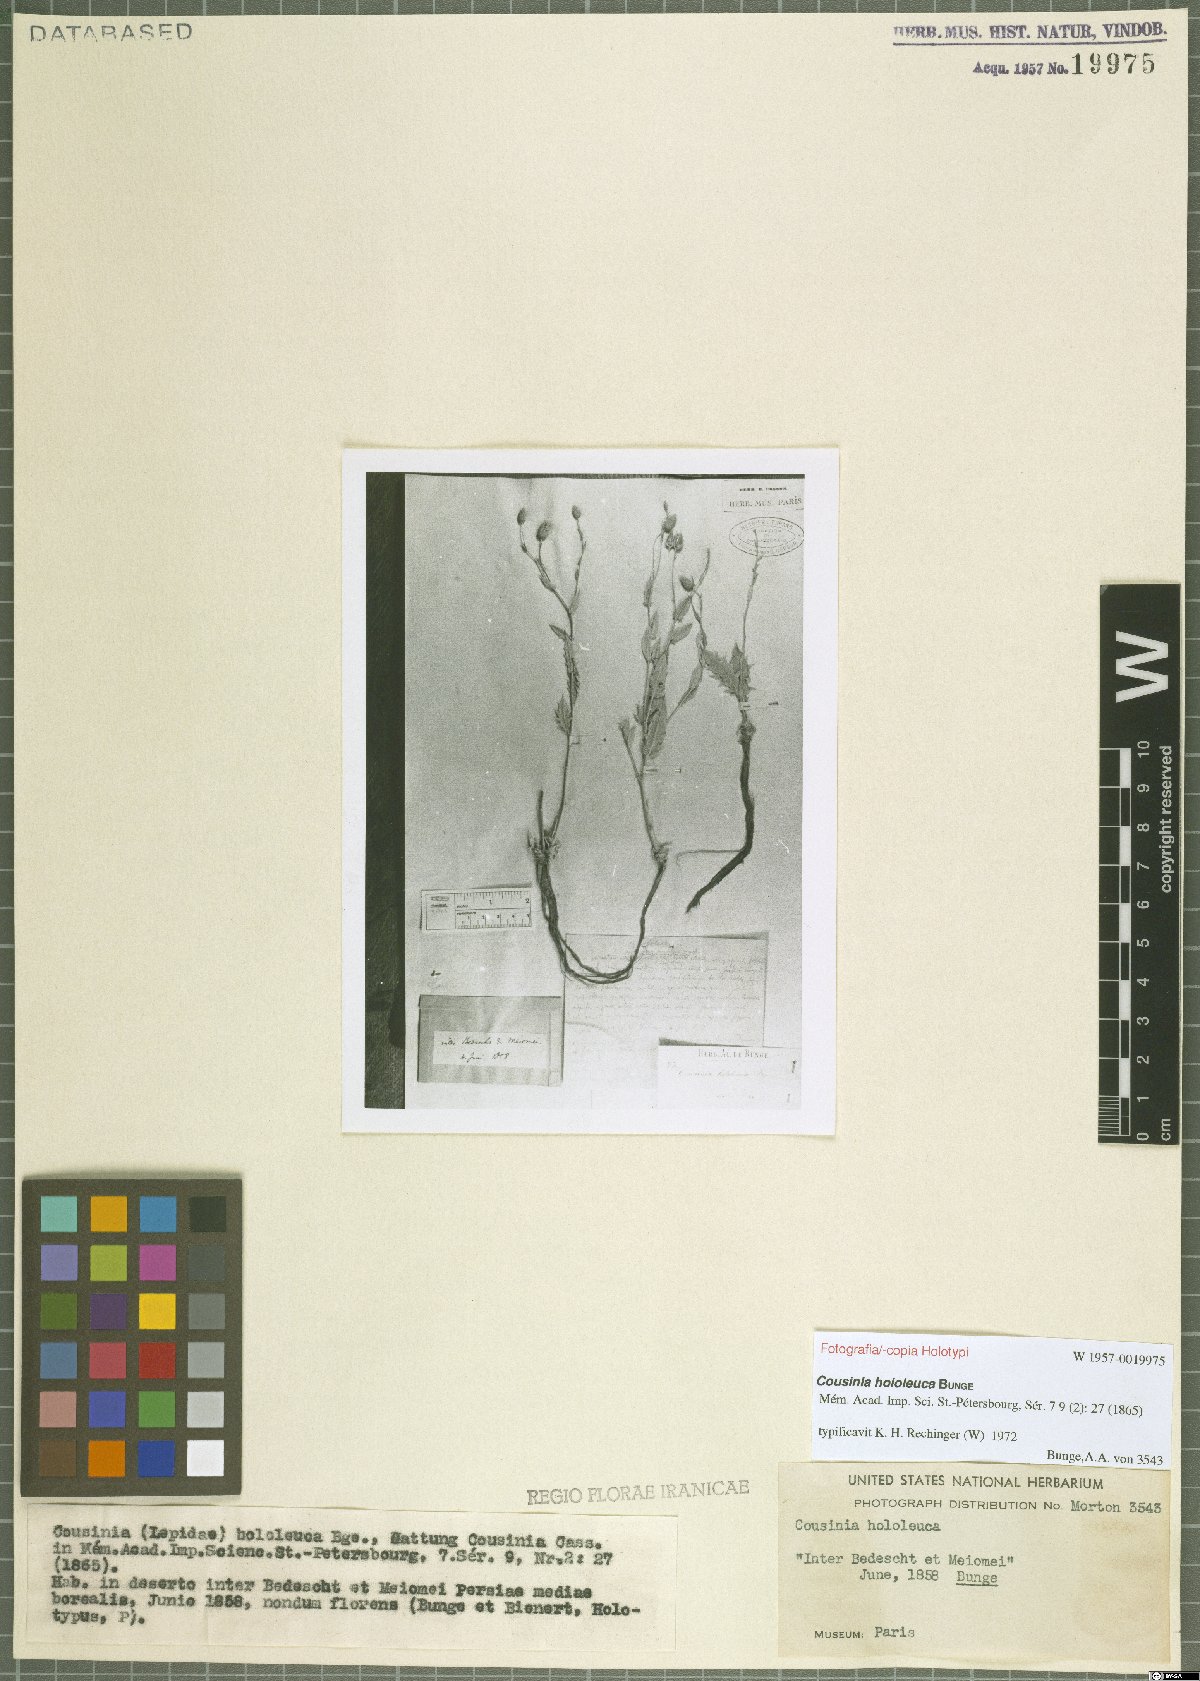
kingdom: Plantae
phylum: Tracheophyta
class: Magnoliopsida
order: Asterales
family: Asteraceae
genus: Cousinia
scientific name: Cousinia hololeuca
